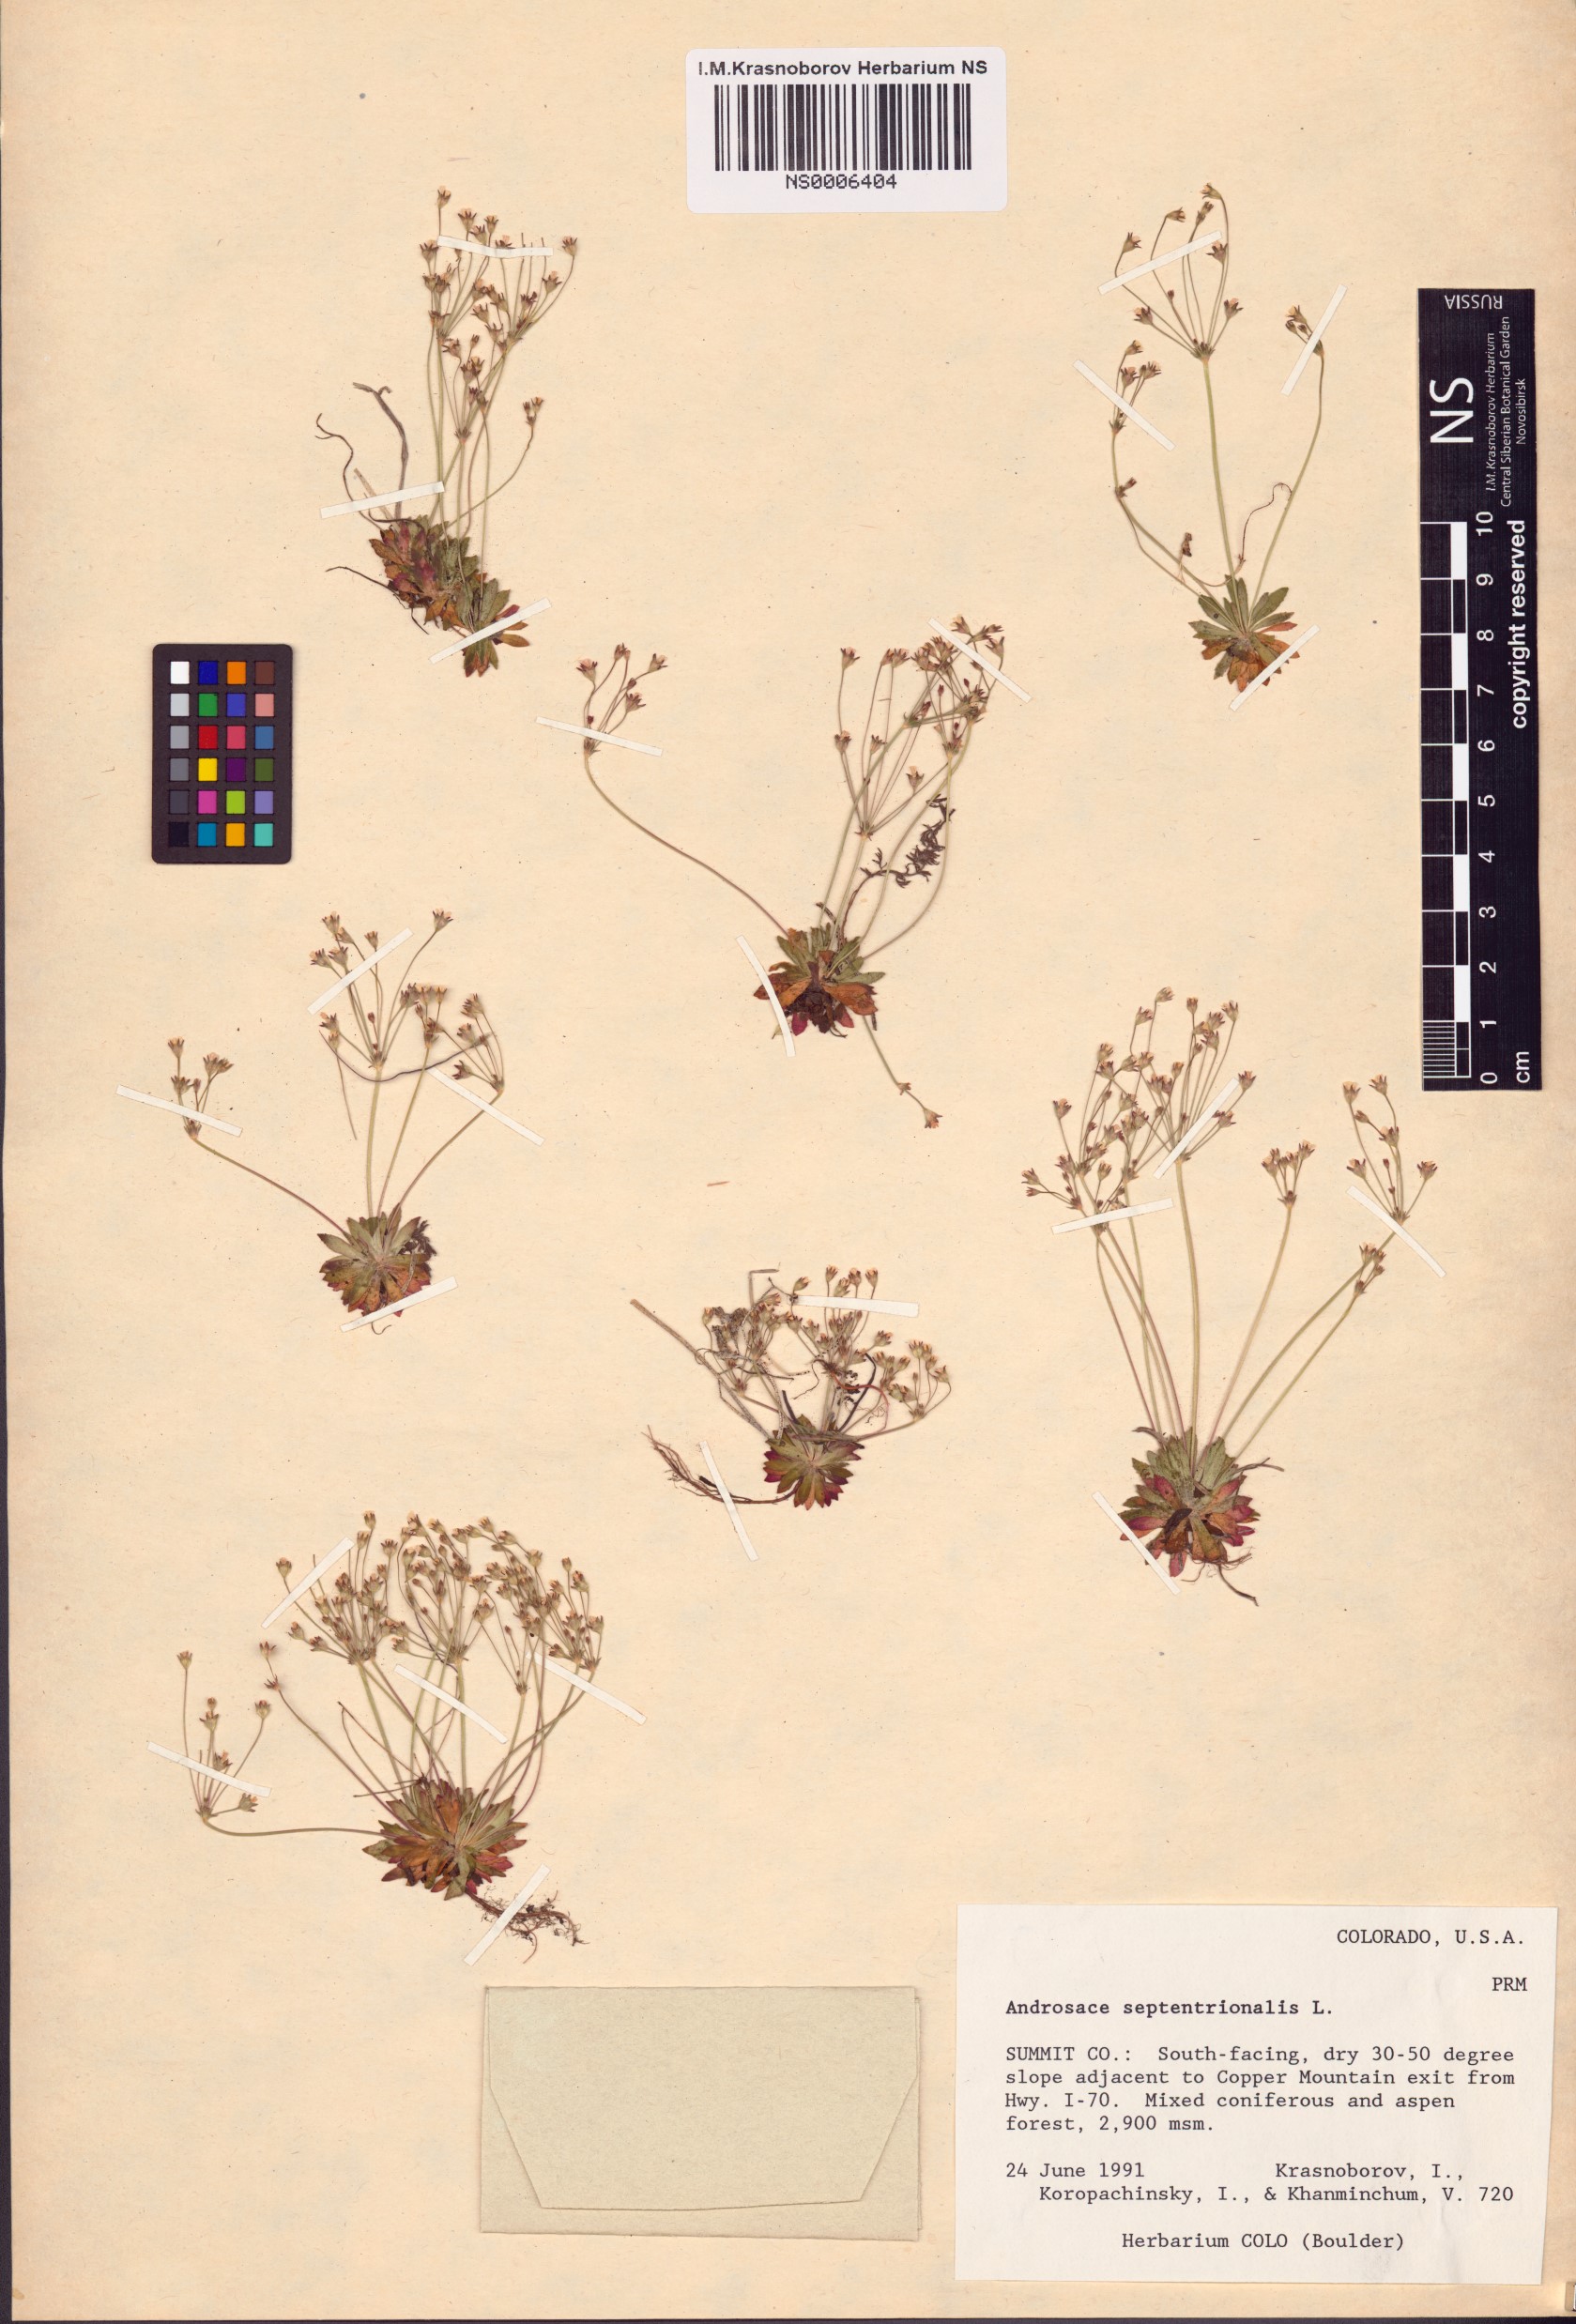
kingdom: Plantae
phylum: Tracheophyta
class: Magnoliopsida
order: Ericales
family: Primulaceae
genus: Androsace
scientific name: Androsace septentrionalis
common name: Hairy northern fairy-candelabra
